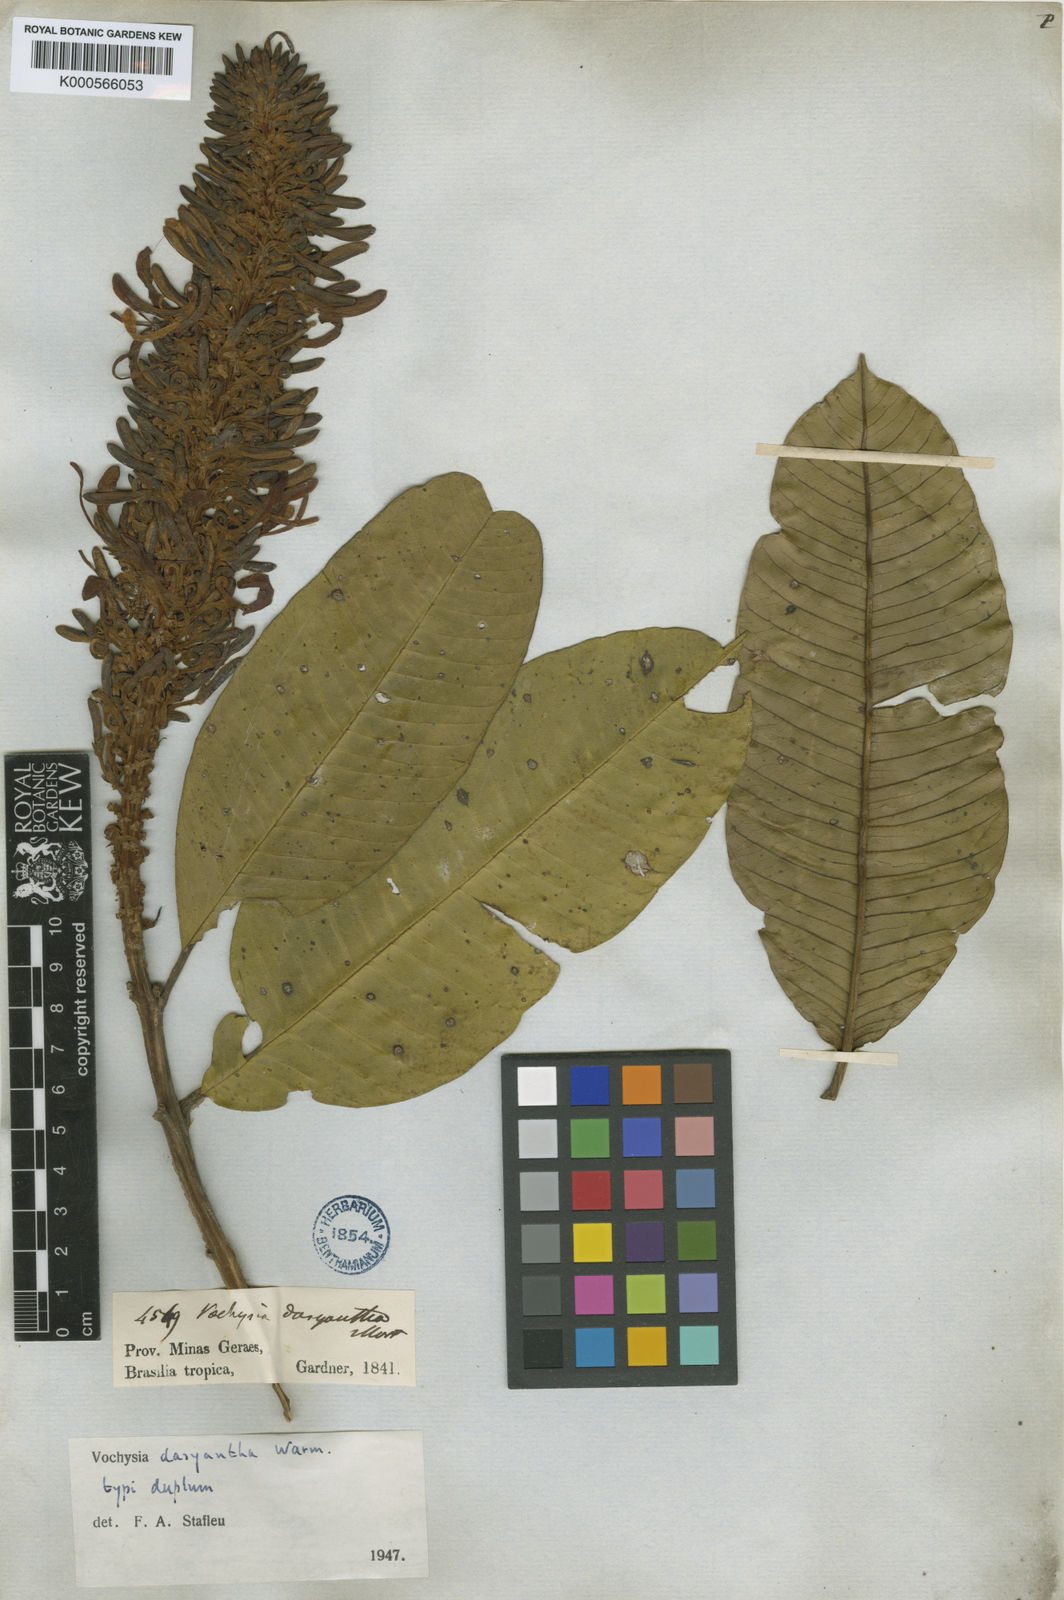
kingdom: Plantae
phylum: Tracheophyta
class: Magnoliopsida
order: Myrtales
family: Vochysiaceae
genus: Vochysia
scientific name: Vochysia dasyantha
